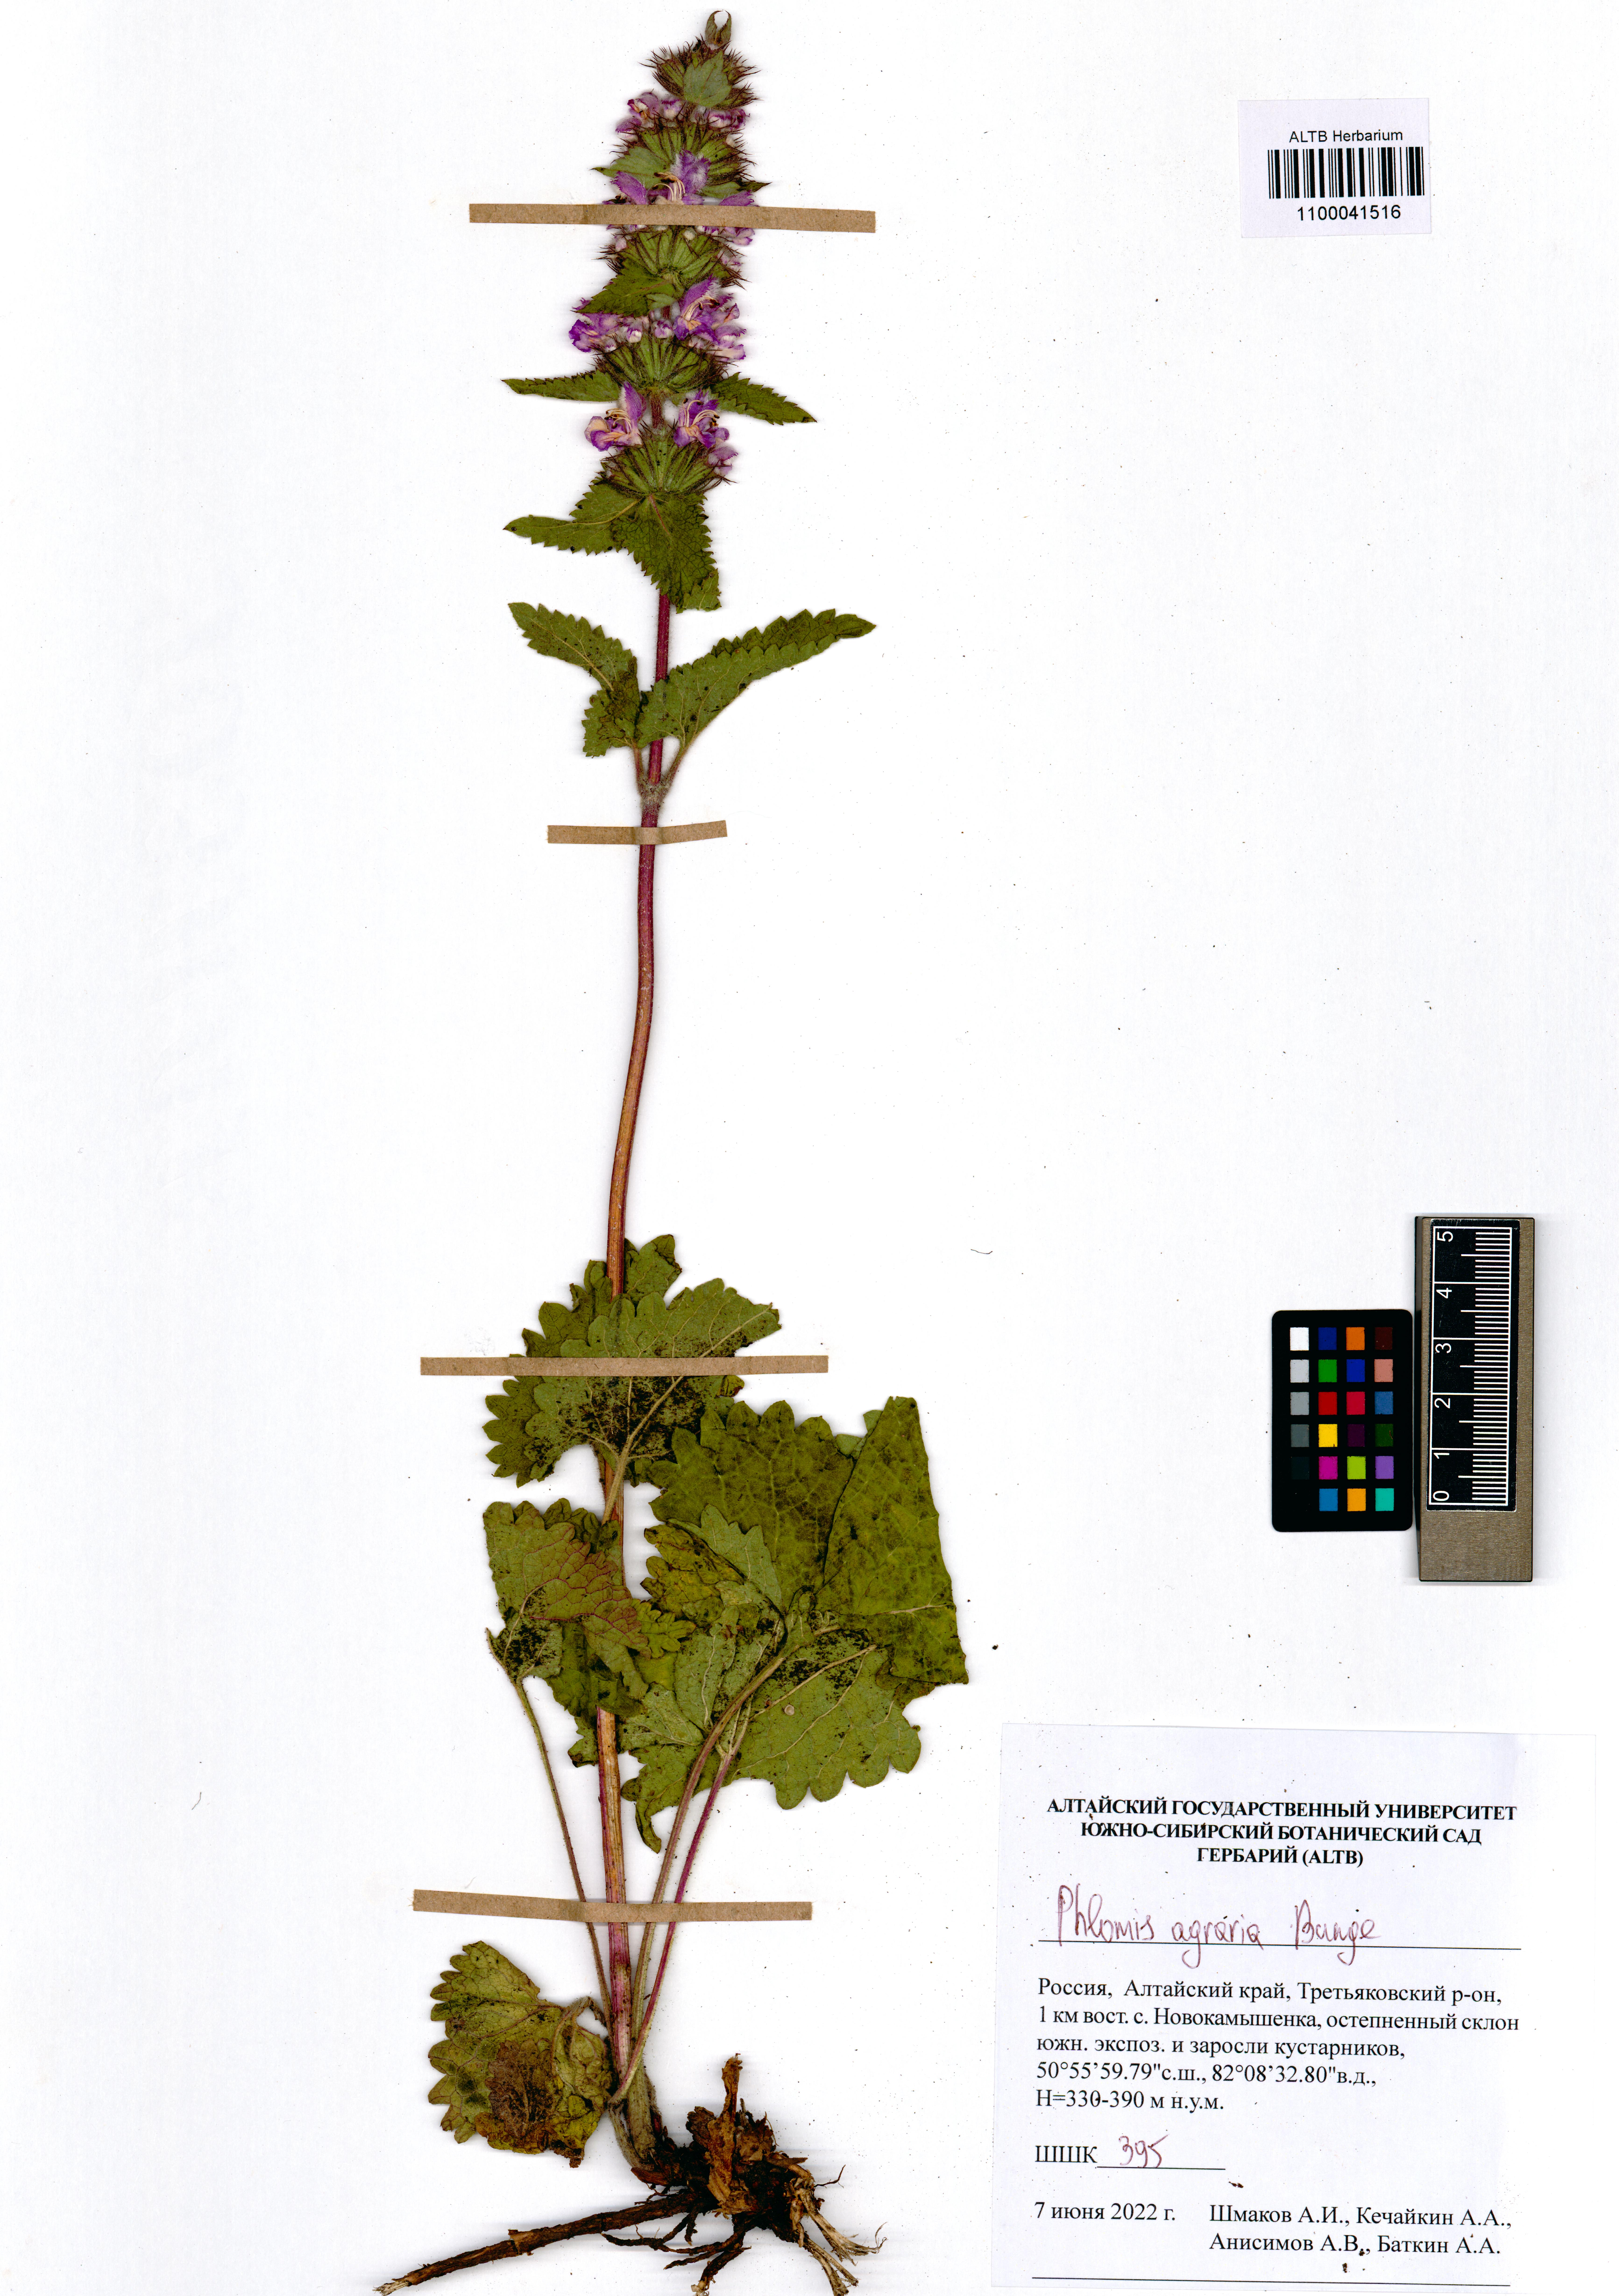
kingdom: Plantae
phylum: Tracheophyta
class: Magnoliopsida
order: Lamiales
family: Lamiaceae
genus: Phlomoides
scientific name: Phlomoides agraria
